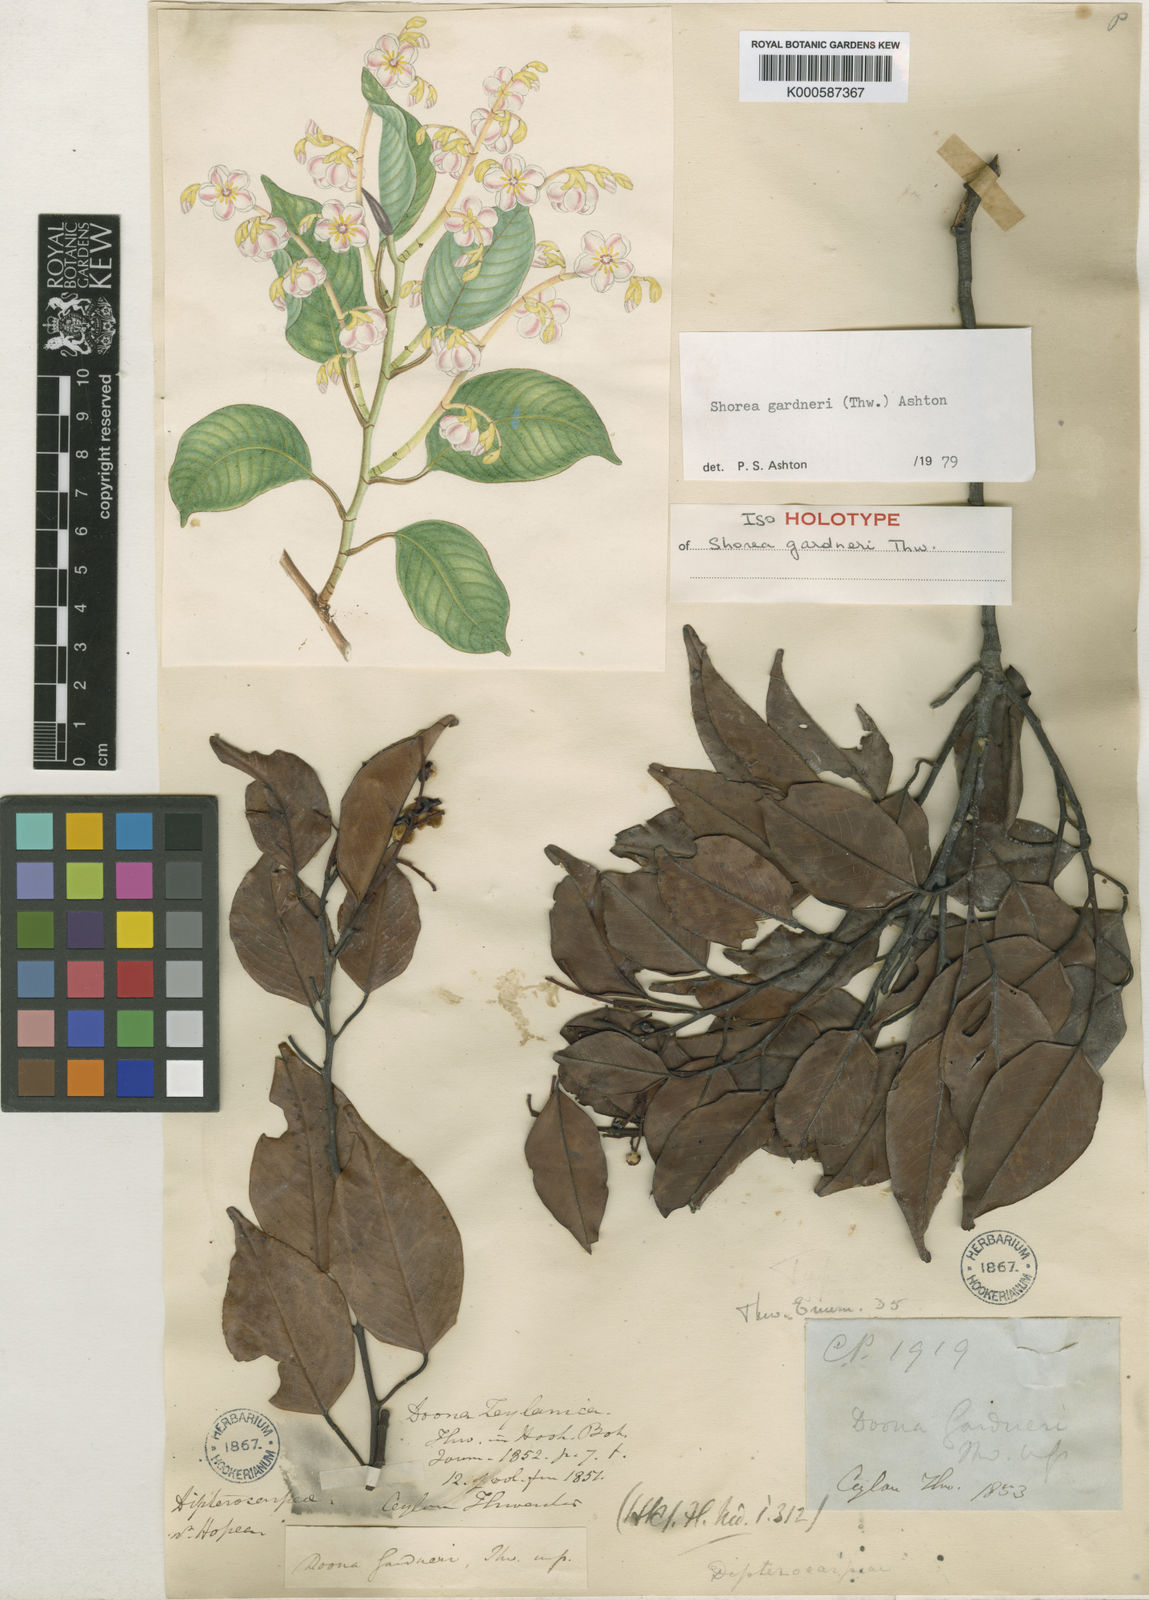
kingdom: Plantae
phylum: Tracheophyta
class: Magnoliopsida
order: Malvales
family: Dipterocarpaceae
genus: Doona
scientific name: Doona gardneri
